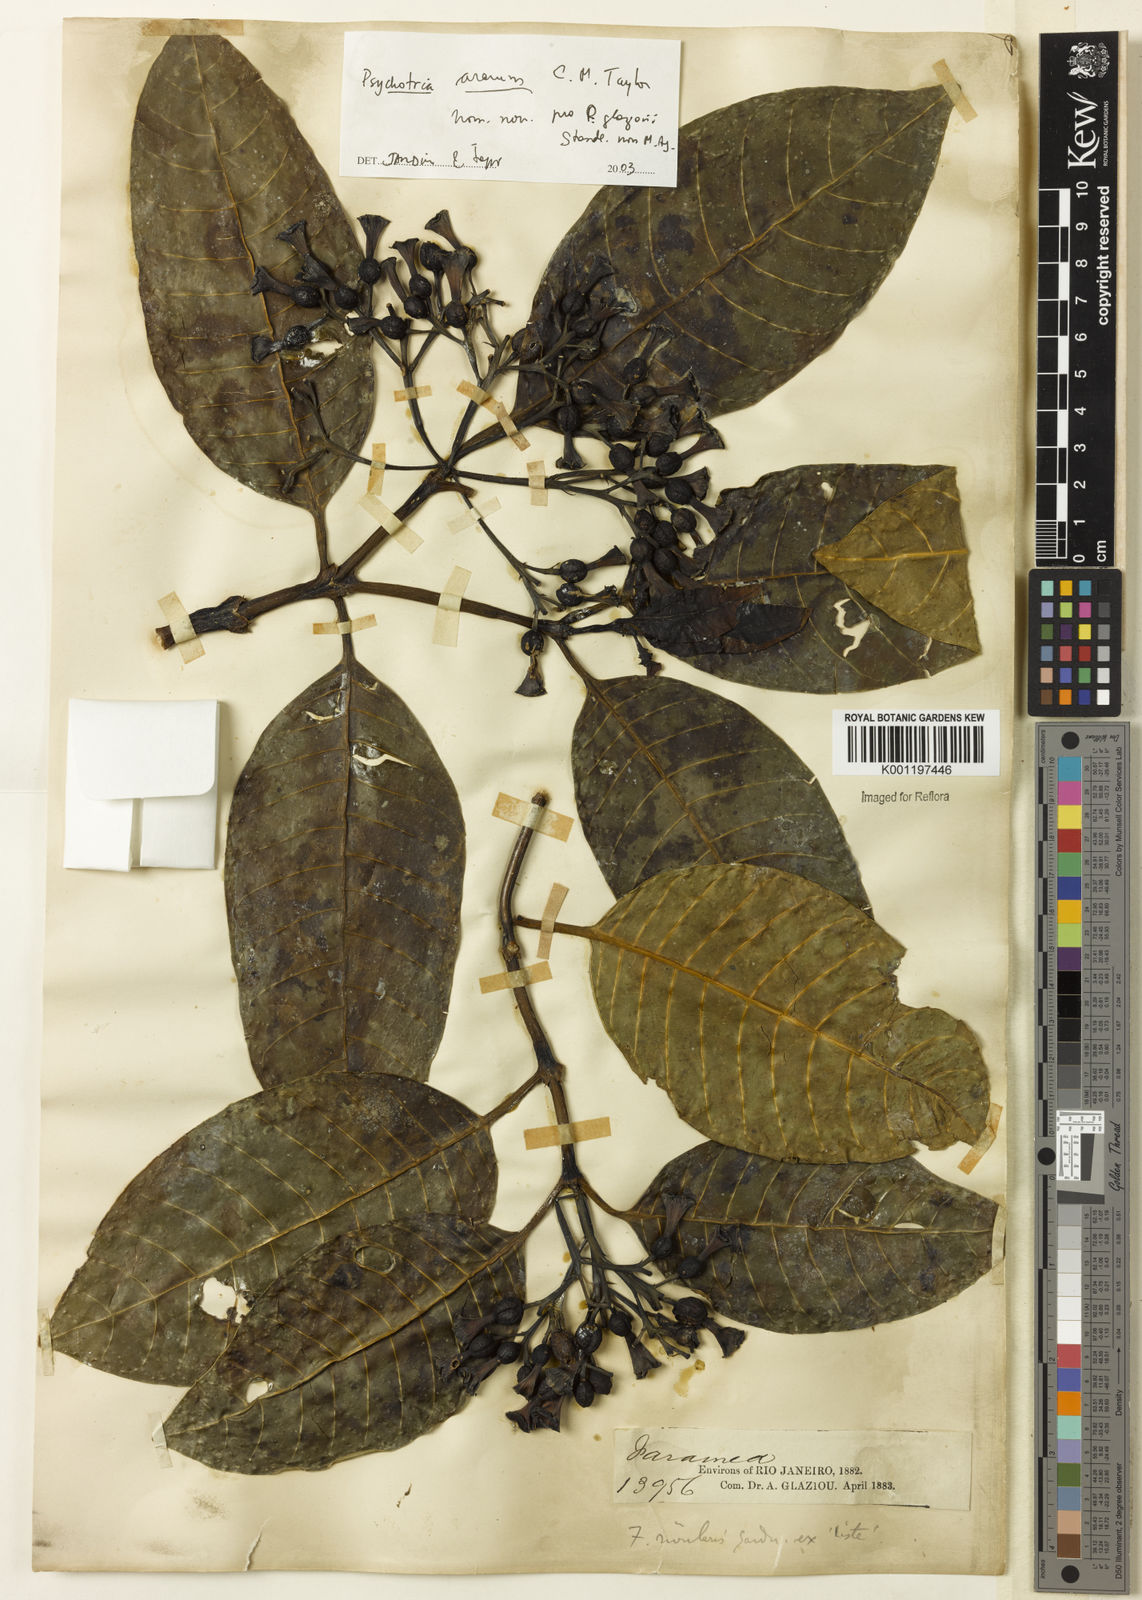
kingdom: Plantae
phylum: Tracheophyta
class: Magnoliopsida
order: Gentianales
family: Rubiaceae
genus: Psychotria
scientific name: Psychotria ararum
